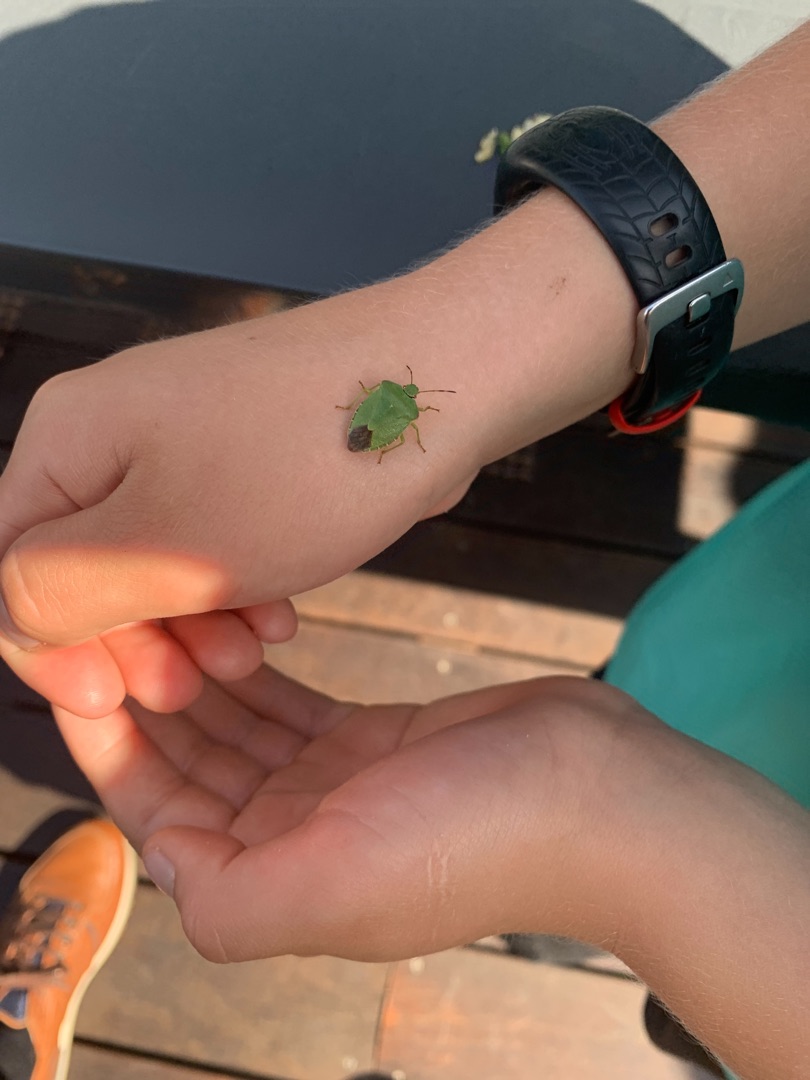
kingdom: Animalia
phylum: Arthropoda
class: Insecta
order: Hemiptera
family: Pentatomidae
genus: Palomena
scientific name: Palomena prasina
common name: Grøn bredtæge
